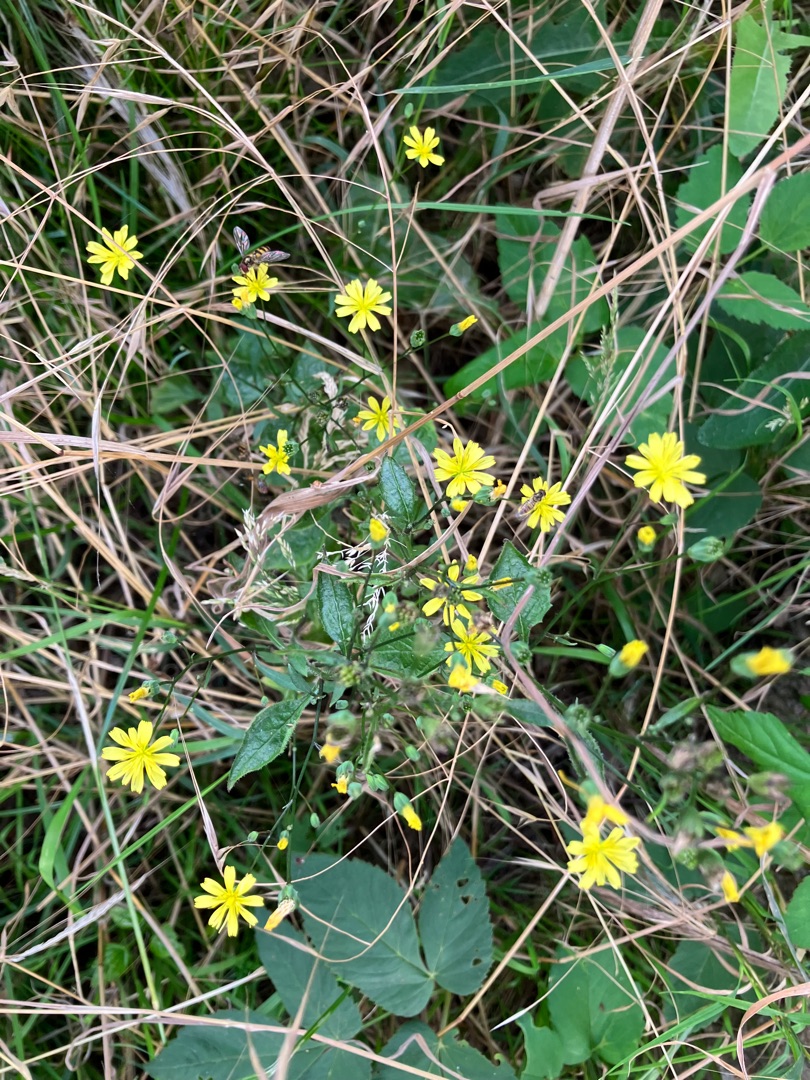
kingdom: Plantae
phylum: Tracheophyta
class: Magnoliopsida
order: Asterales
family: Asteraceae
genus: Lapsana
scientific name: Lapsana communis
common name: Haremad
